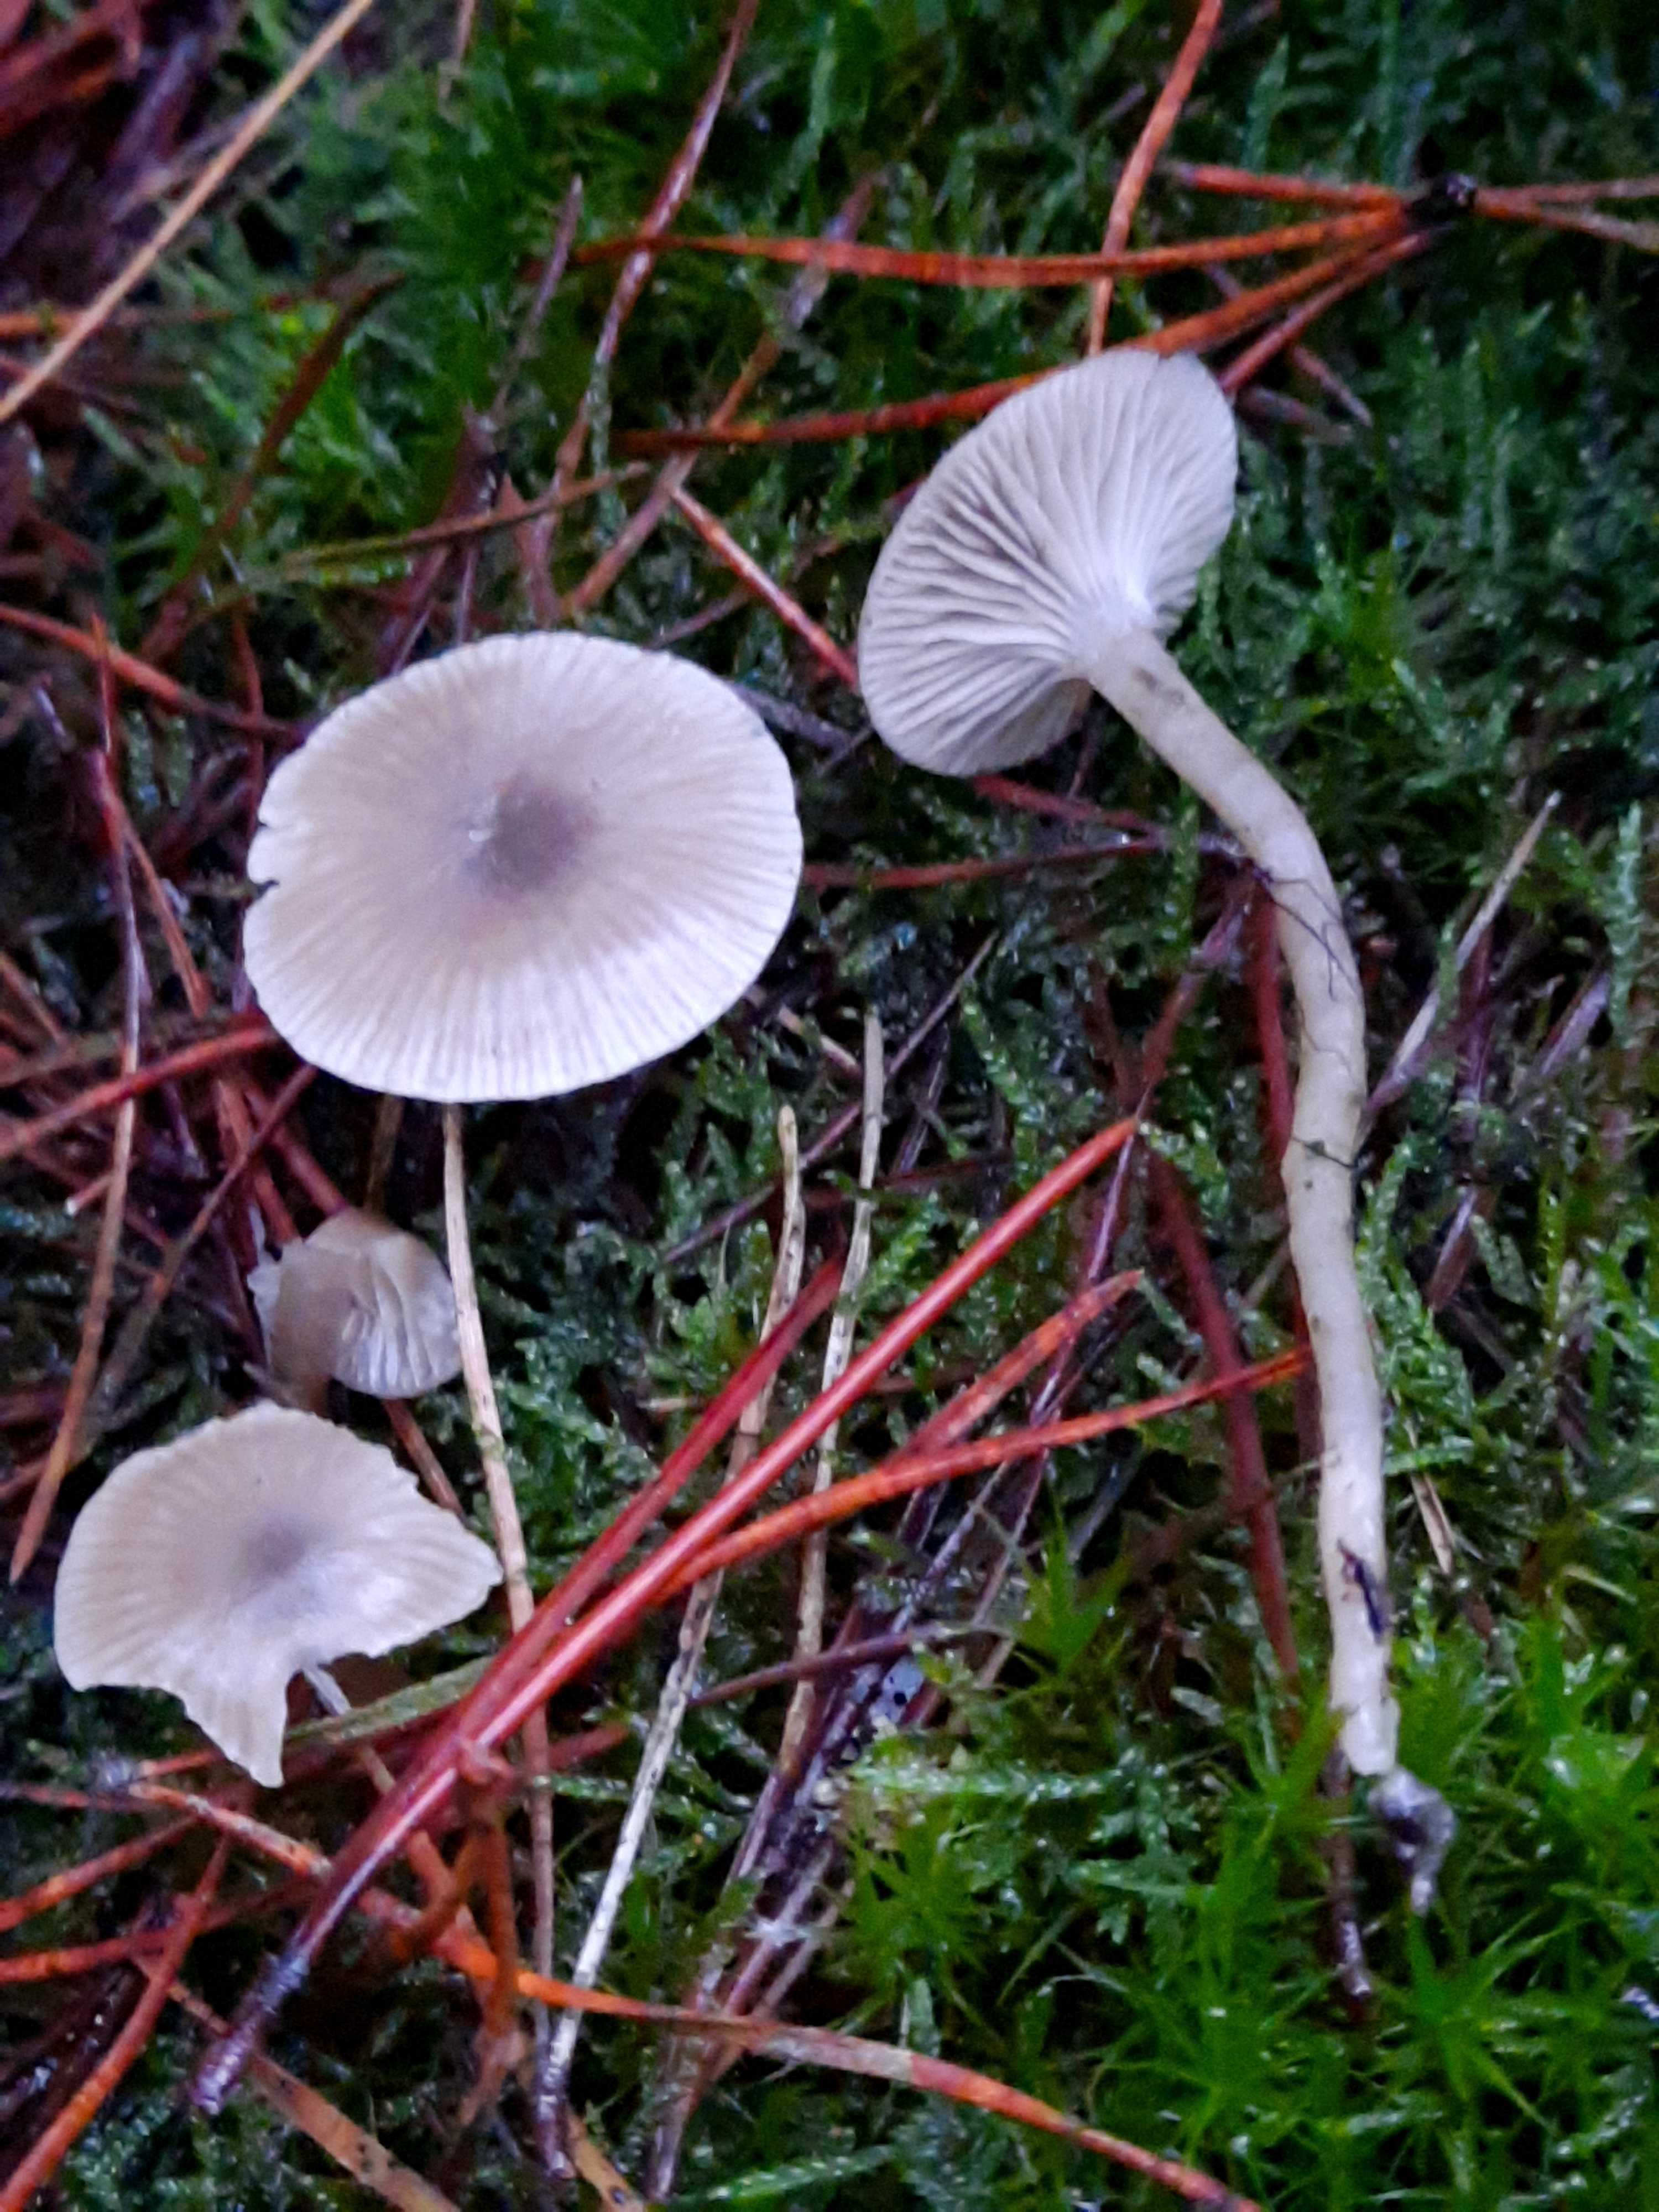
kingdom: Fungi
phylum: Basidiomycota
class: Agaricomycetes
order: Agaricales
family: Tricholomataceae
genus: Clitocybe
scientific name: Clitocybe vibecina
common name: randstribet tragthat
